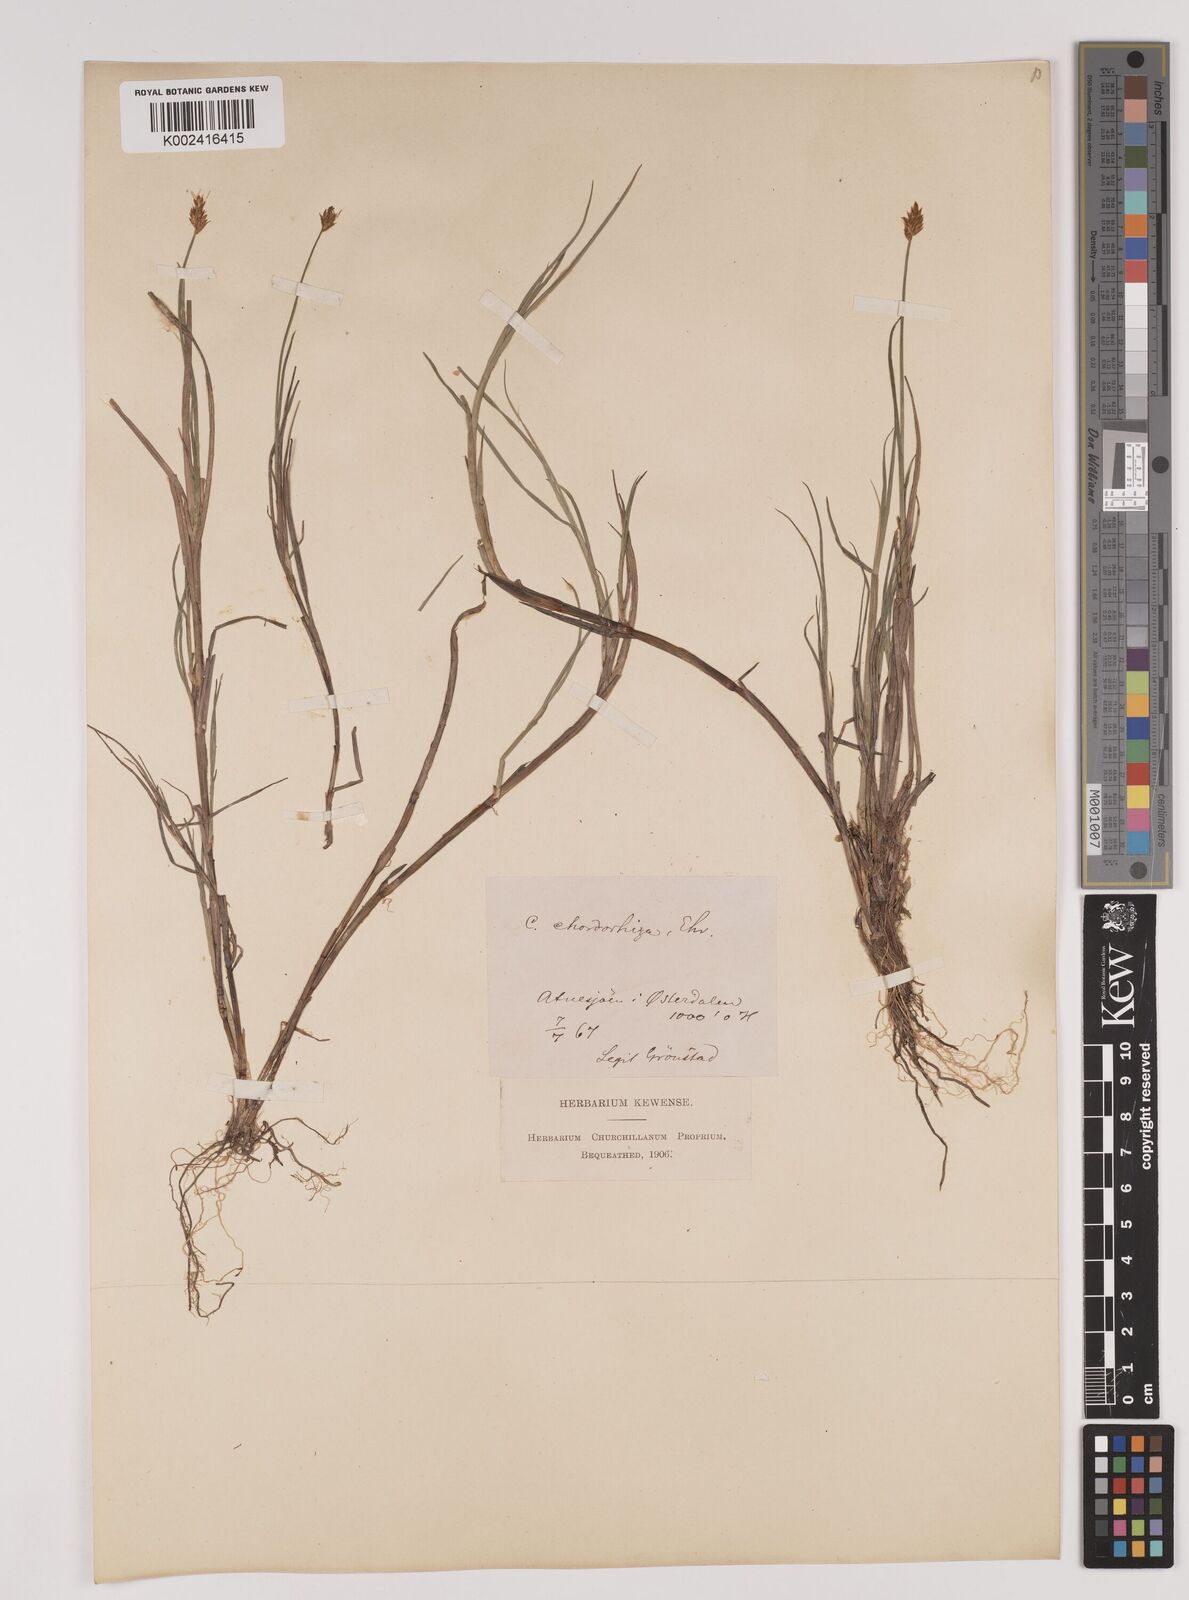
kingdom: Plantae
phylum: Tracheophyta
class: Liliopsida
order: Poales
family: Cyperaceae
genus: Carex
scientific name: Carex chordorrhiza
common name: String sedge
